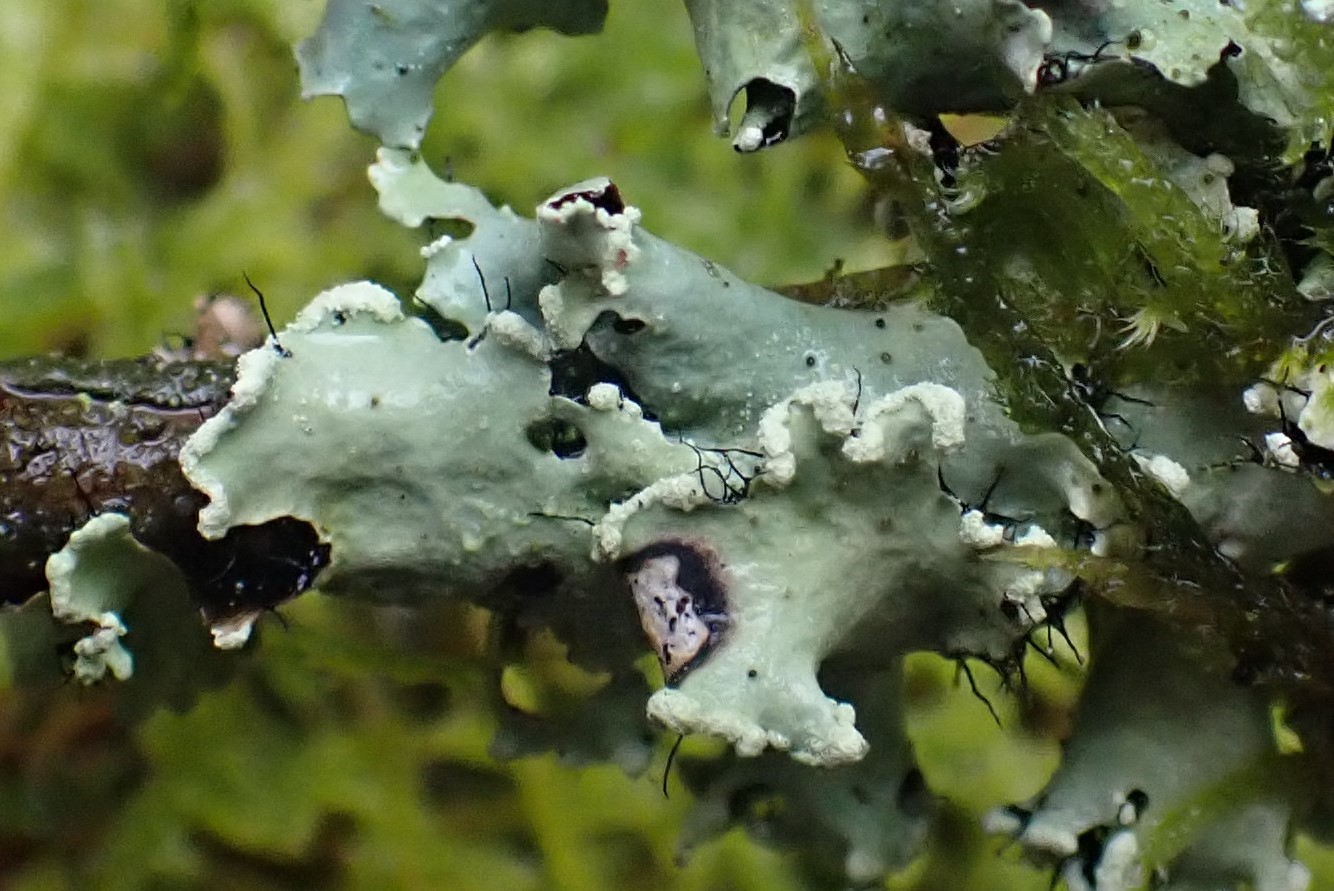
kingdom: Fungi
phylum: Ascomycota
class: Lecanoromycetes
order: Lecanorales
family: Parmeliaceae
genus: Parmotrema
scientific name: Parmotrema perlatum
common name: trådet skållav
